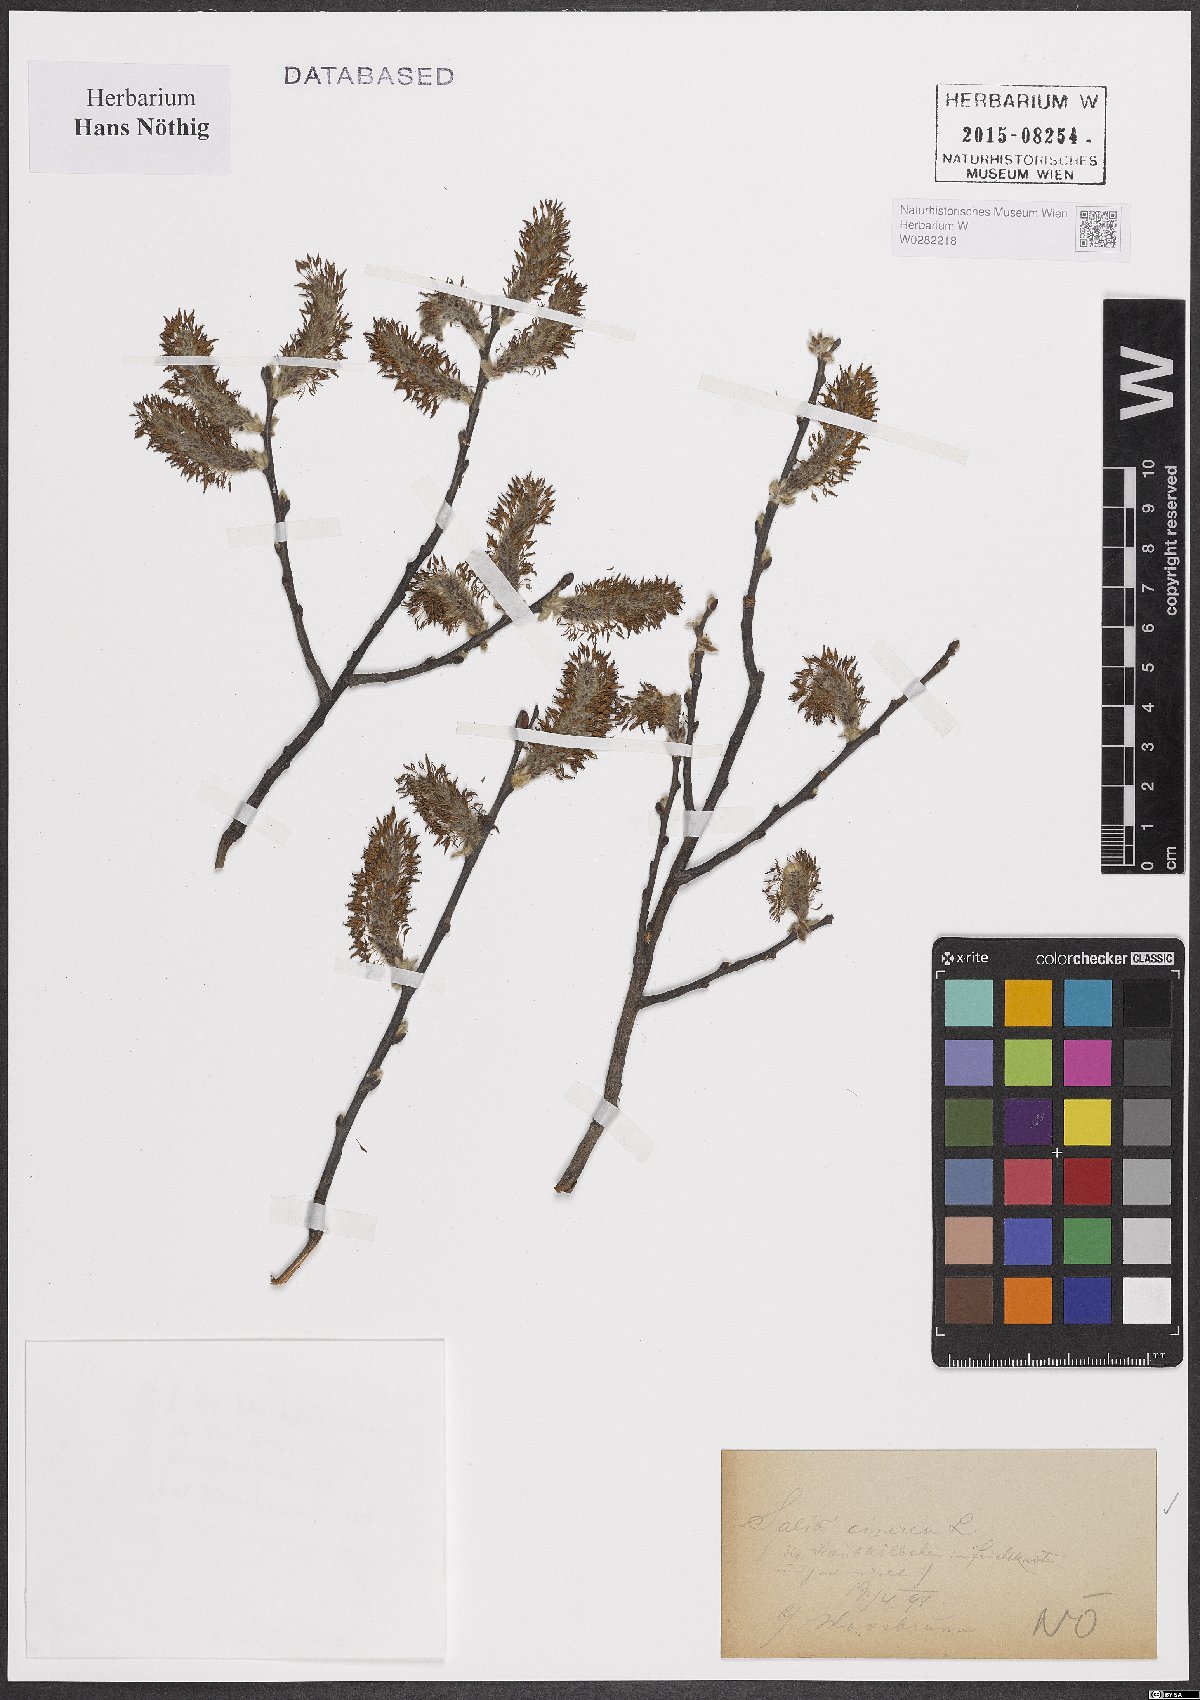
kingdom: Plantae
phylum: Tracheophyta
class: Magnoliopsida
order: Malpighiales
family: Salicaceae
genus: Salix
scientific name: Salix cinerea
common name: Common sallow
